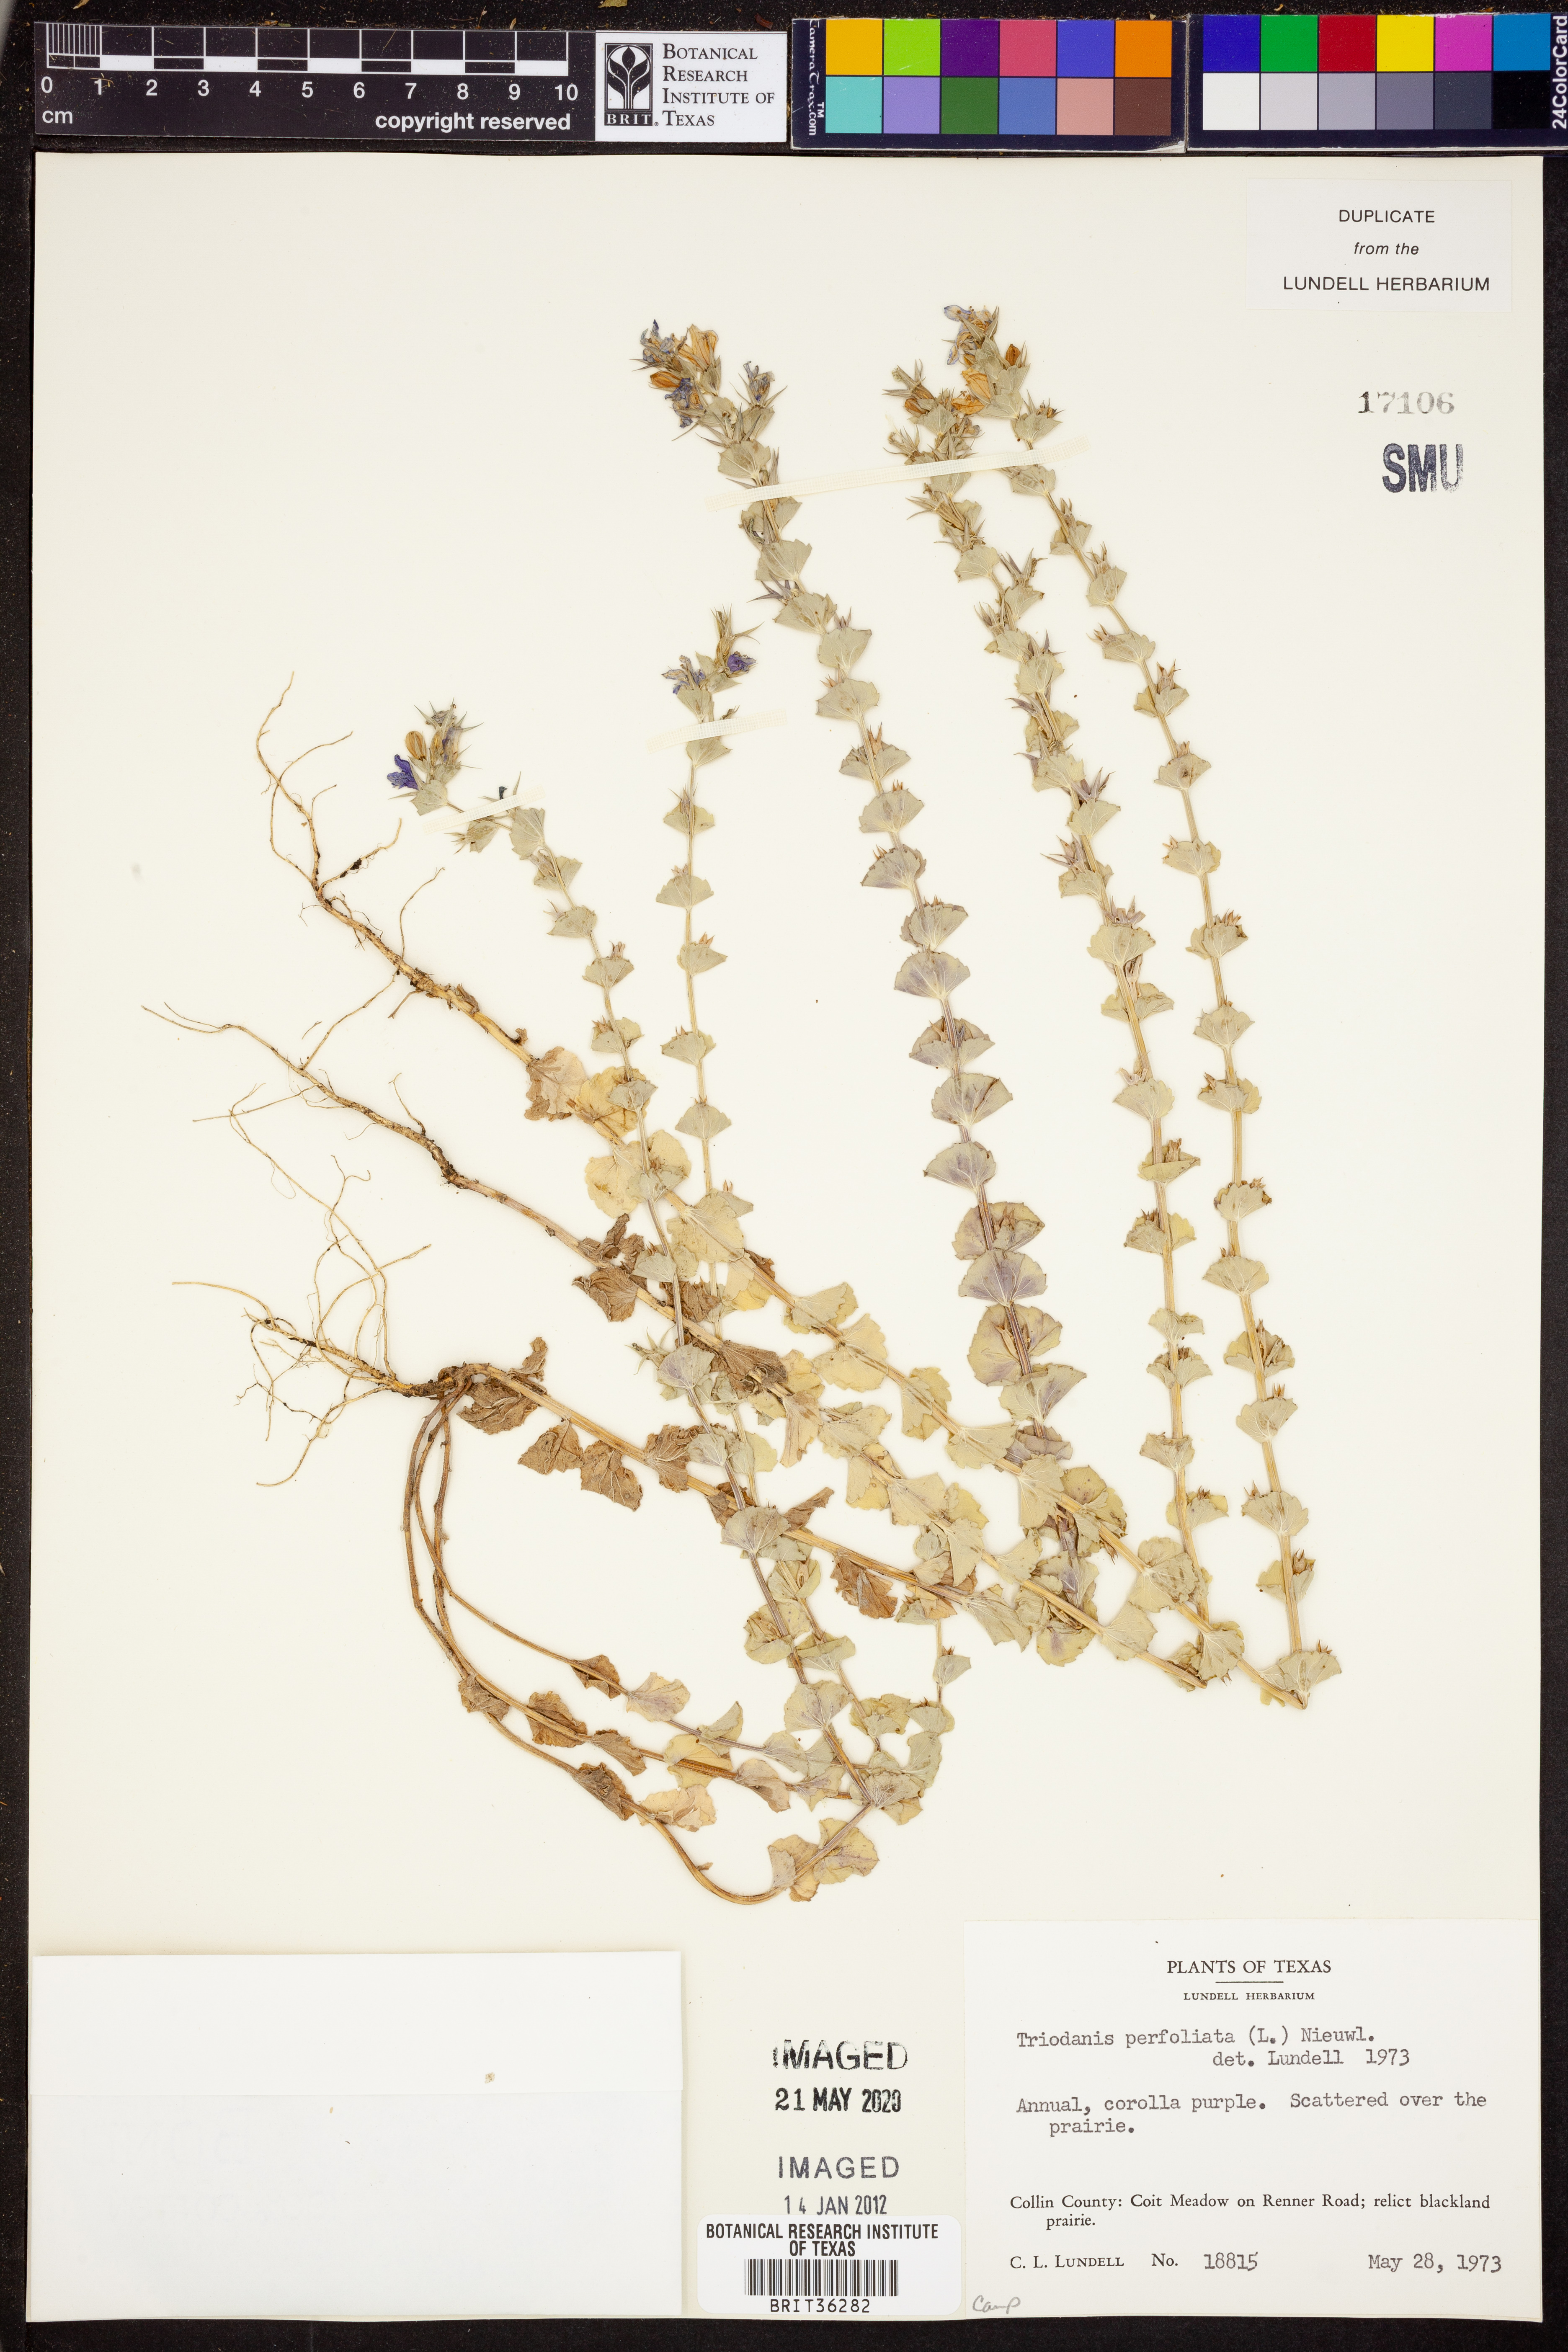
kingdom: Plantae
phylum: Tracheophyta
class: Magnoliopsida
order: Asterales
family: Campanulaceae
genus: Triodanis
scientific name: Triodanis perfoliata
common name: Clasping venus' looking-glass
